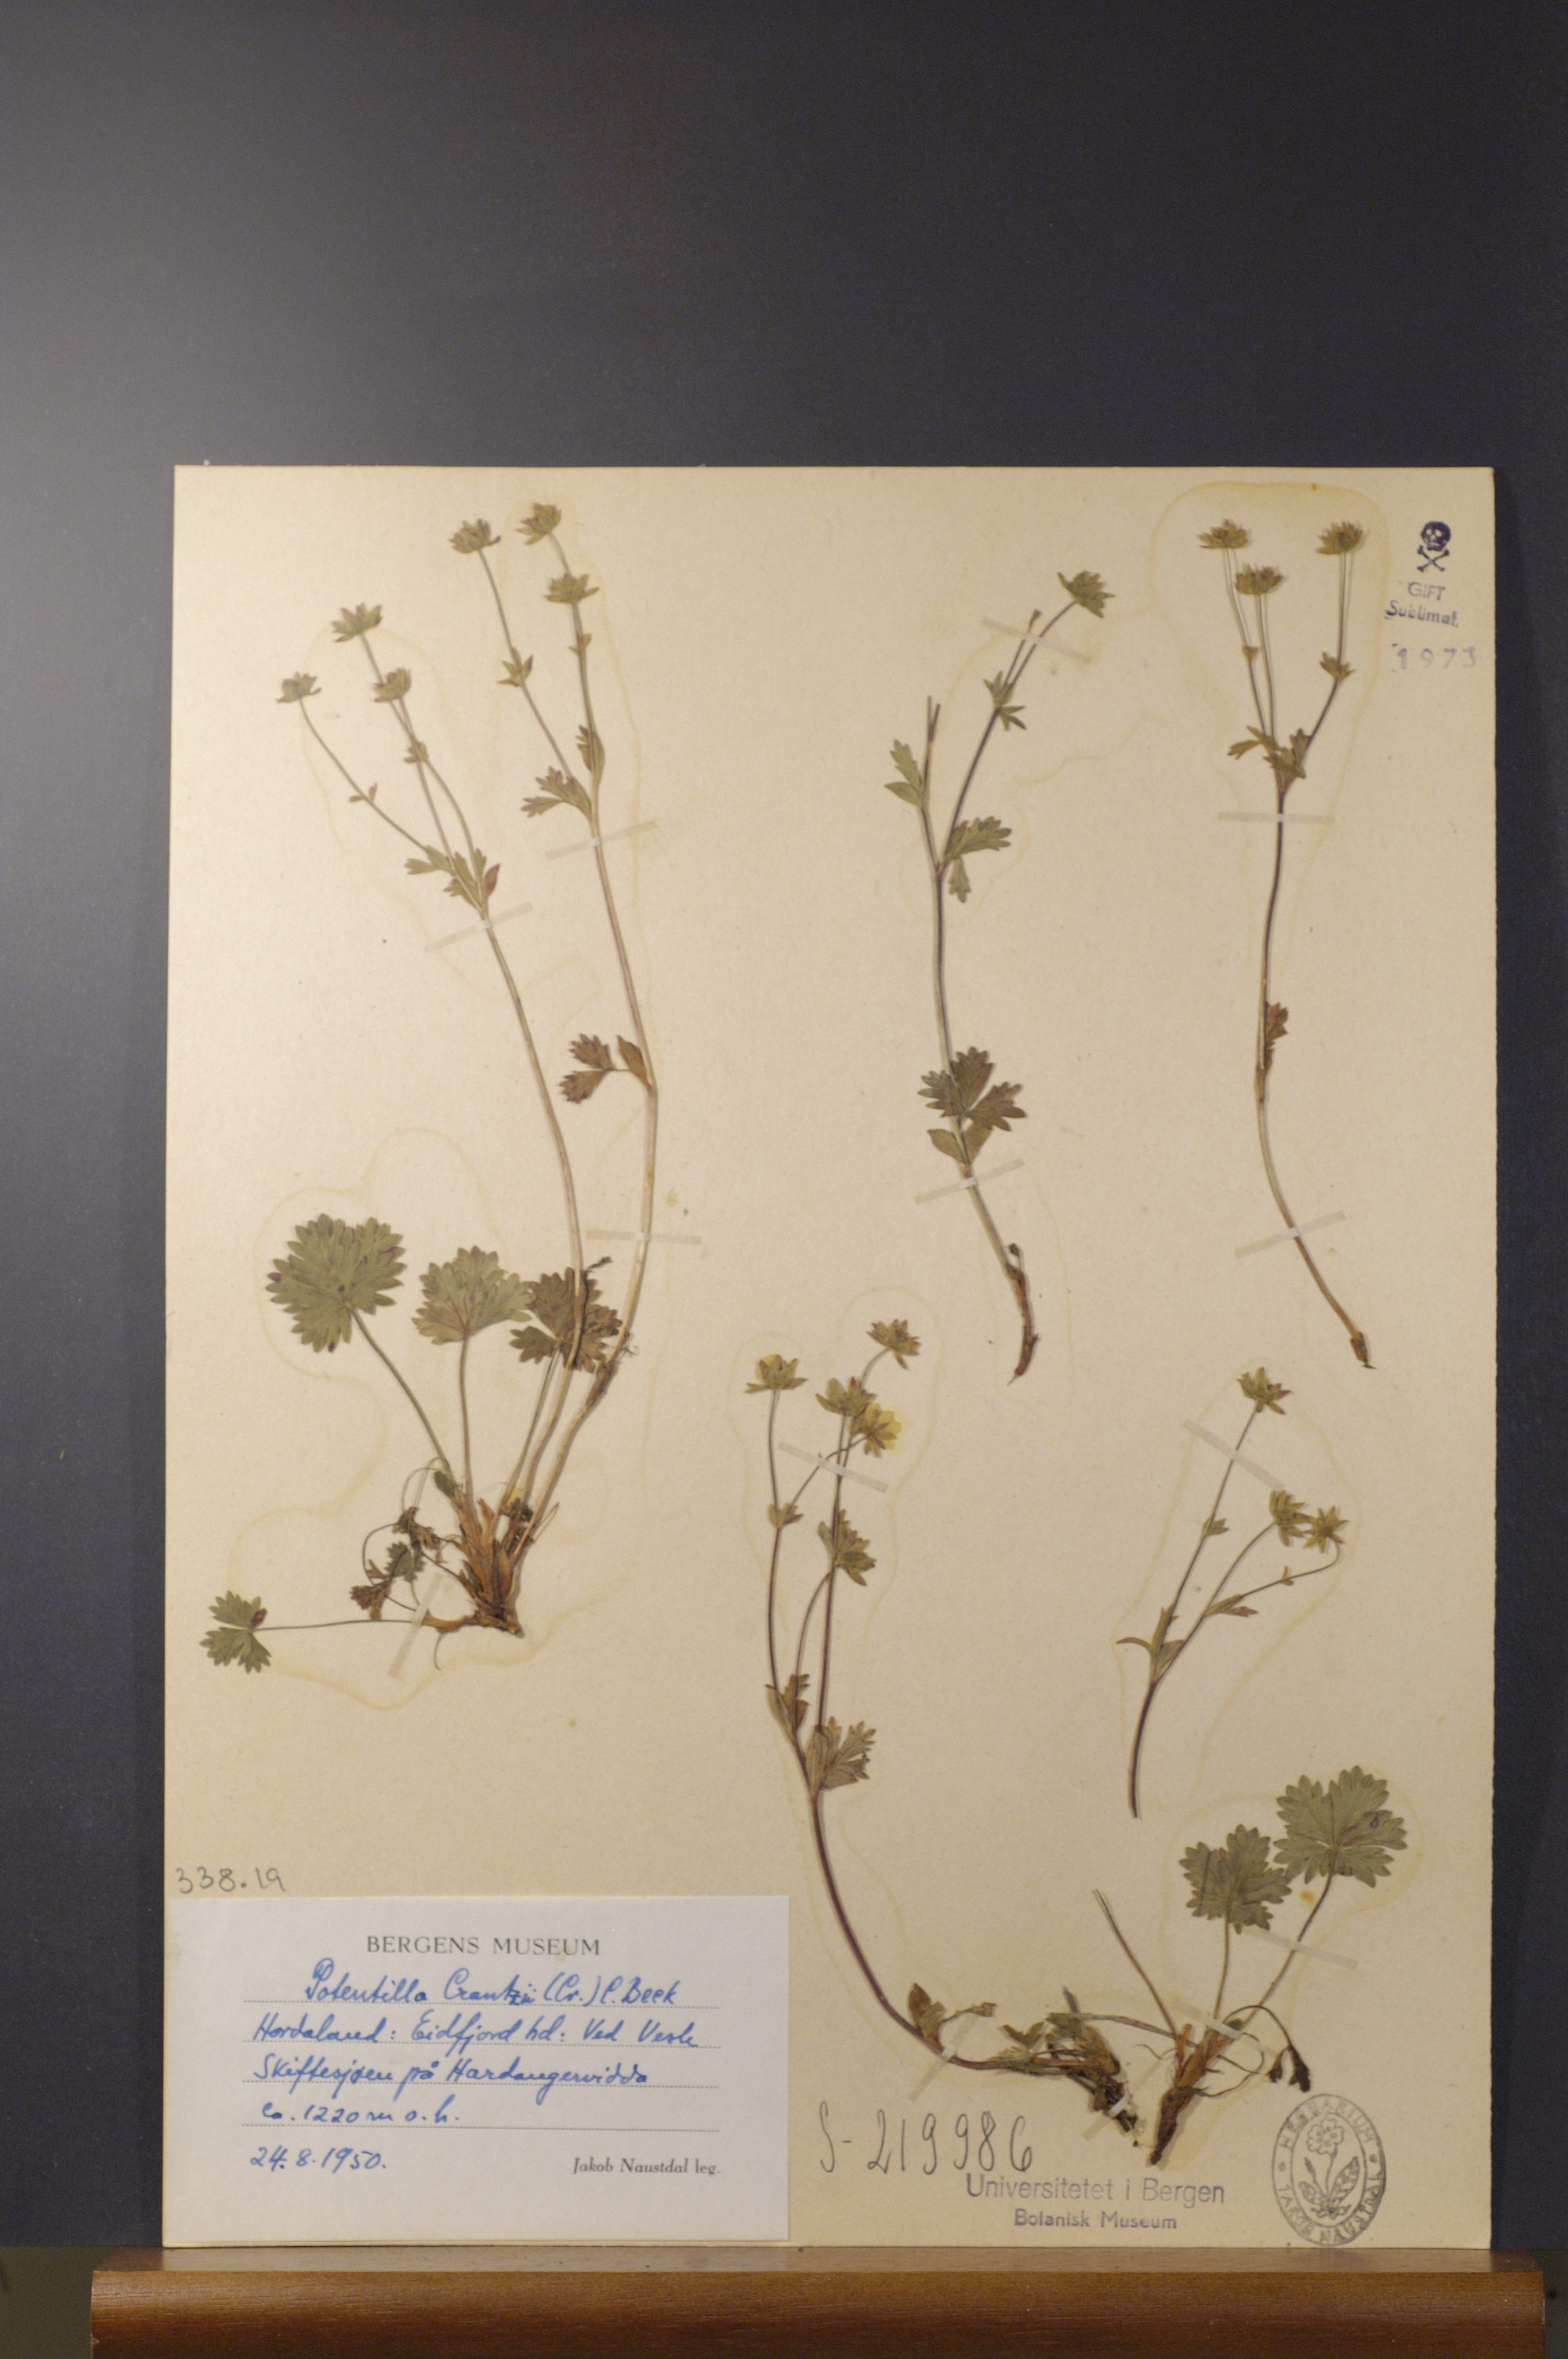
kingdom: Plantae
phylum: Tracheophyta
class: Magnoliopsida
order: Rosales
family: Rosaceae
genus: Potentilla
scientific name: Potentilla crantzii
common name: Alpine cinquefoil
